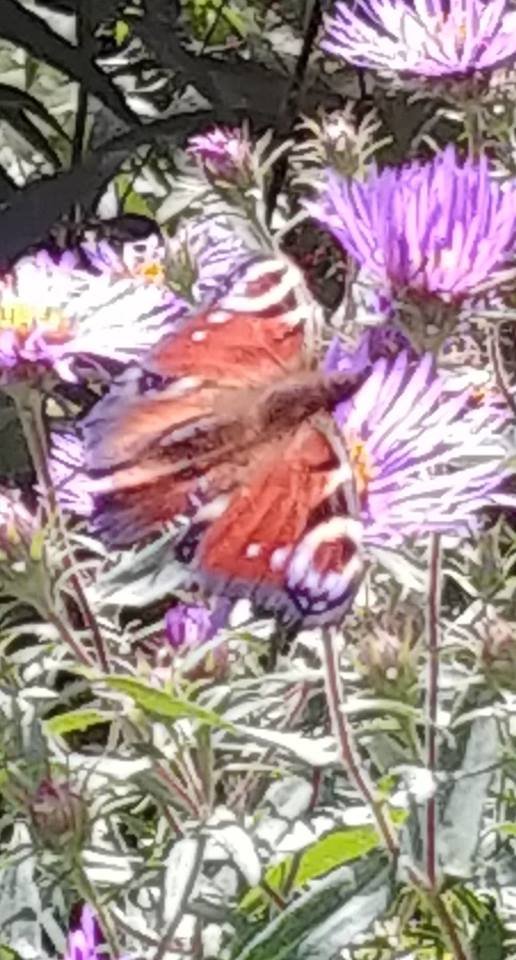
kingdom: Animalia
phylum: Arthropoda
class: Insecta
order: Lepidoptera
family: Nymphalidae
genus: Aglais
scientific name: Aglais io
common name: European Peacock
